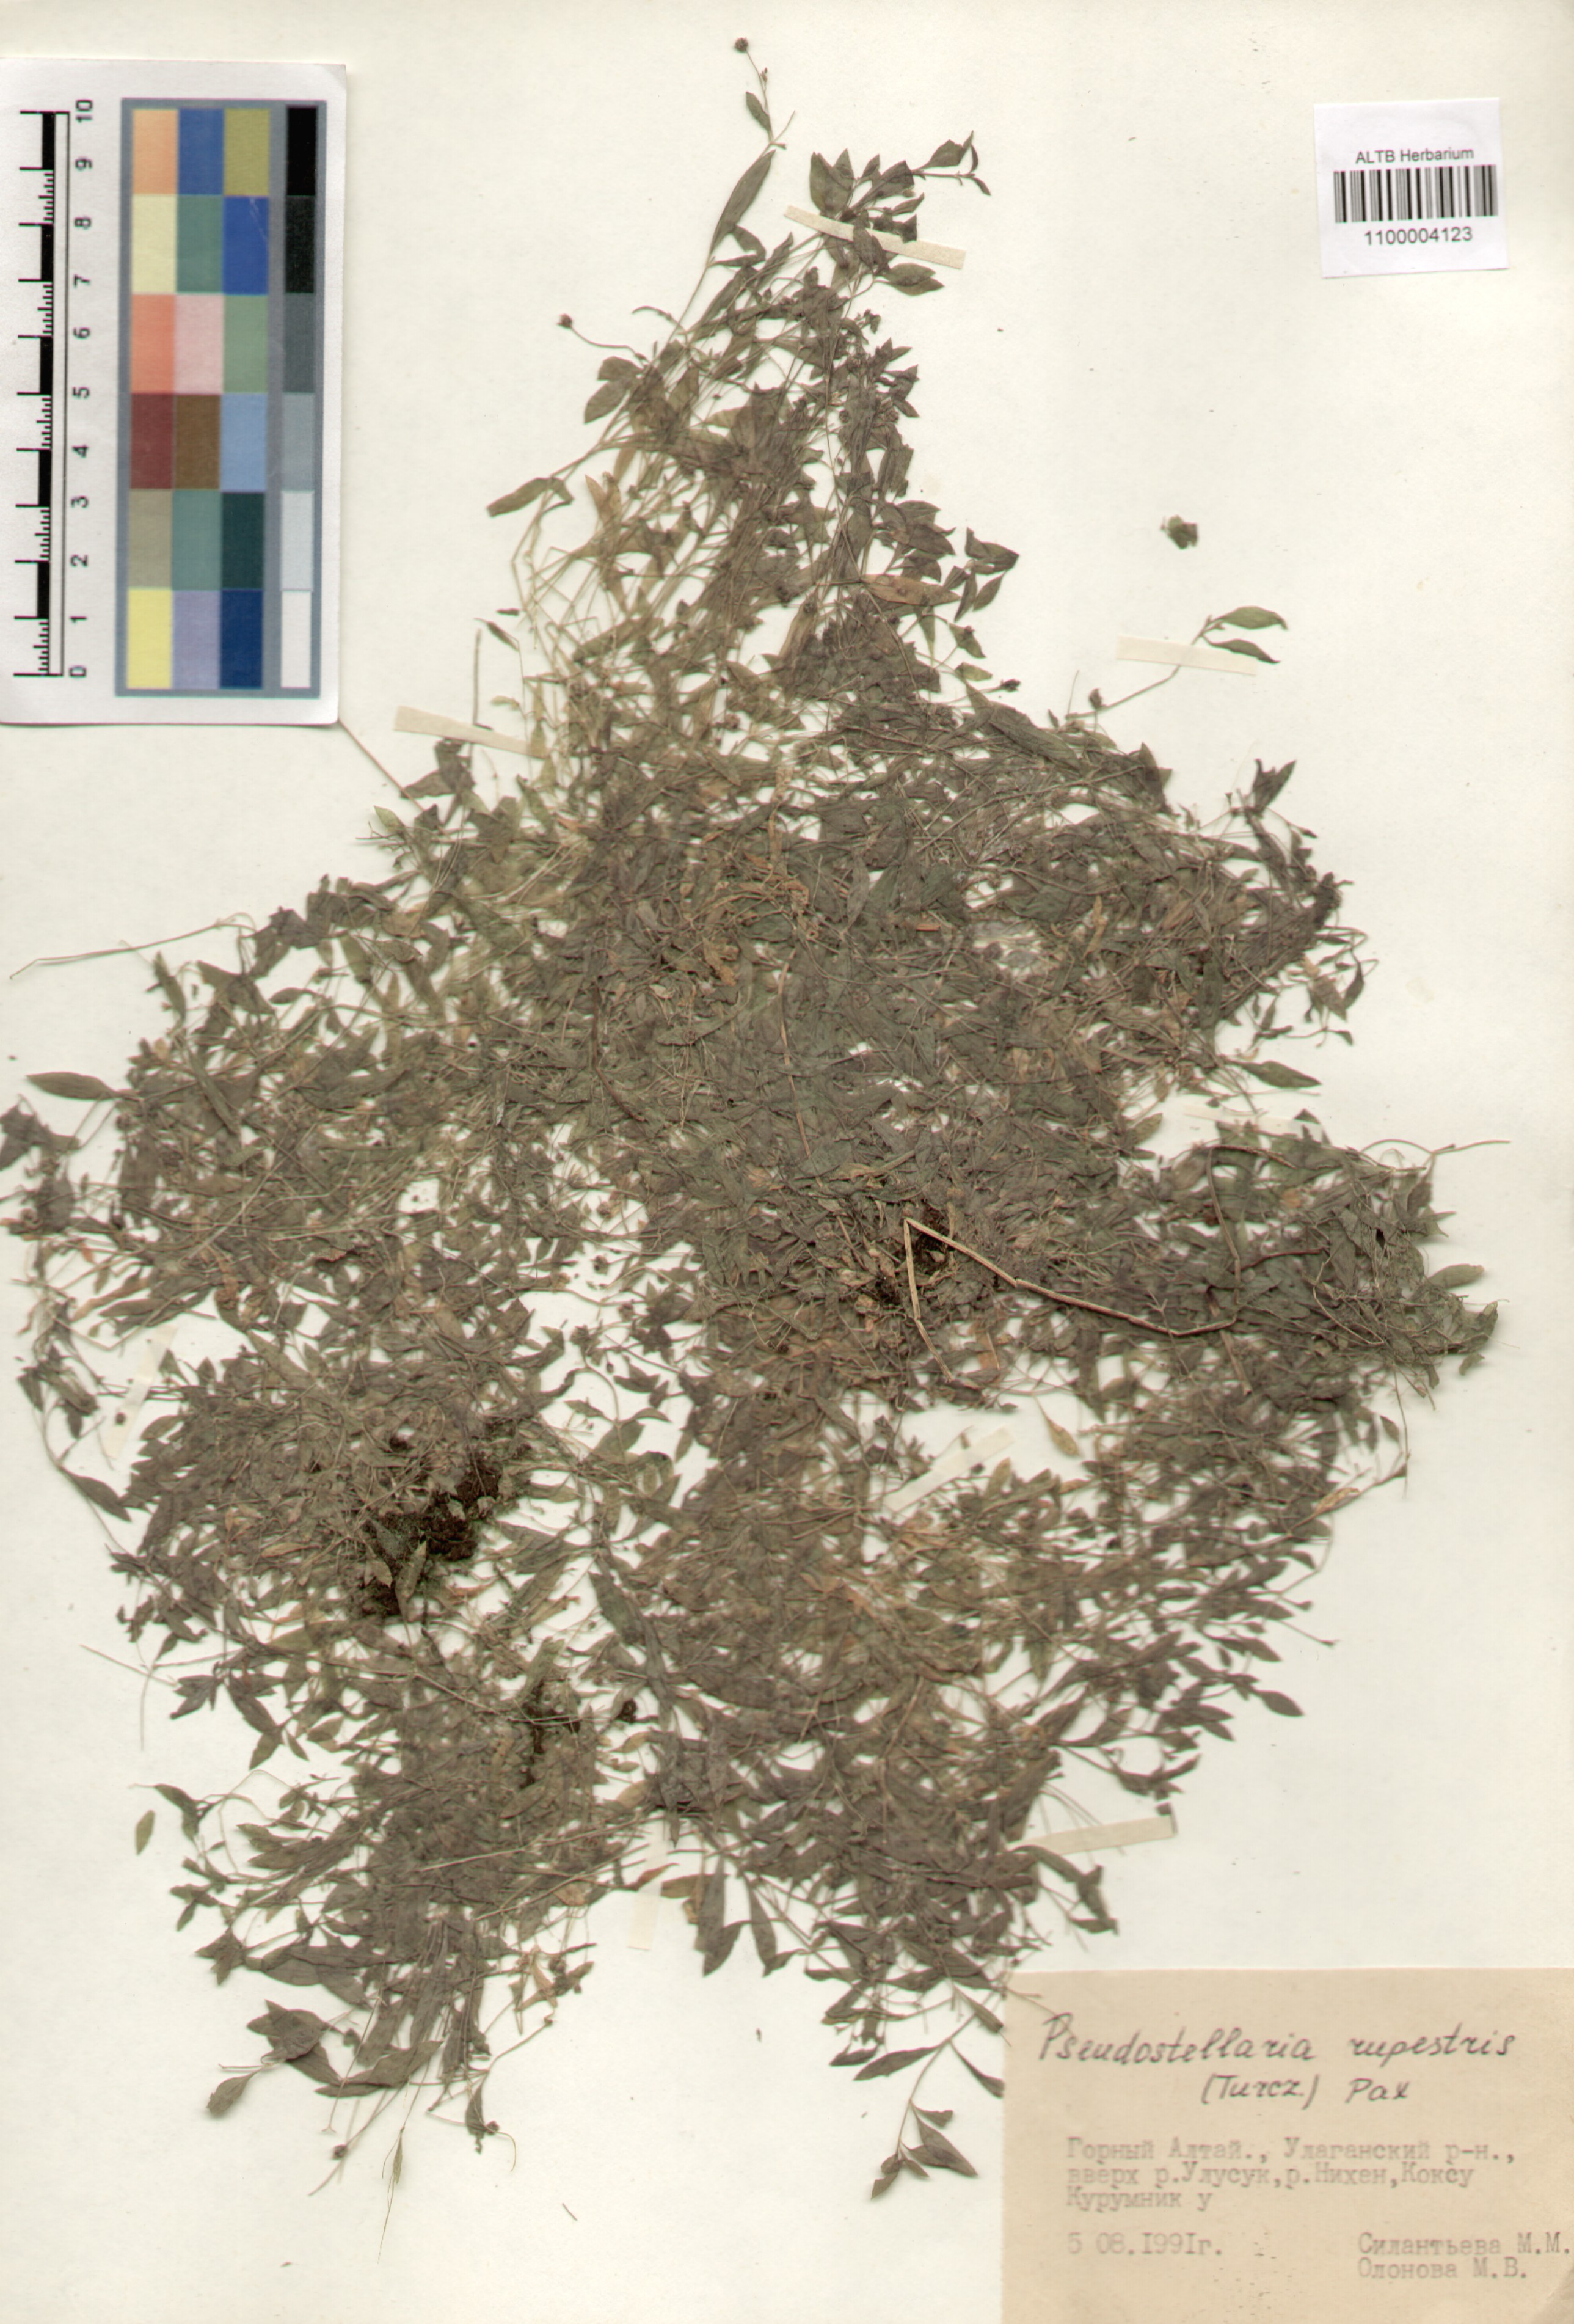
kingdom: Plantae
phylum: Tracheophyta
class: Magnoliopsida
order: Caryophyllales
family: Caryophyllaceae
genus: Pseudostellaria
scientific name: Pseudostellaria sylvatica
